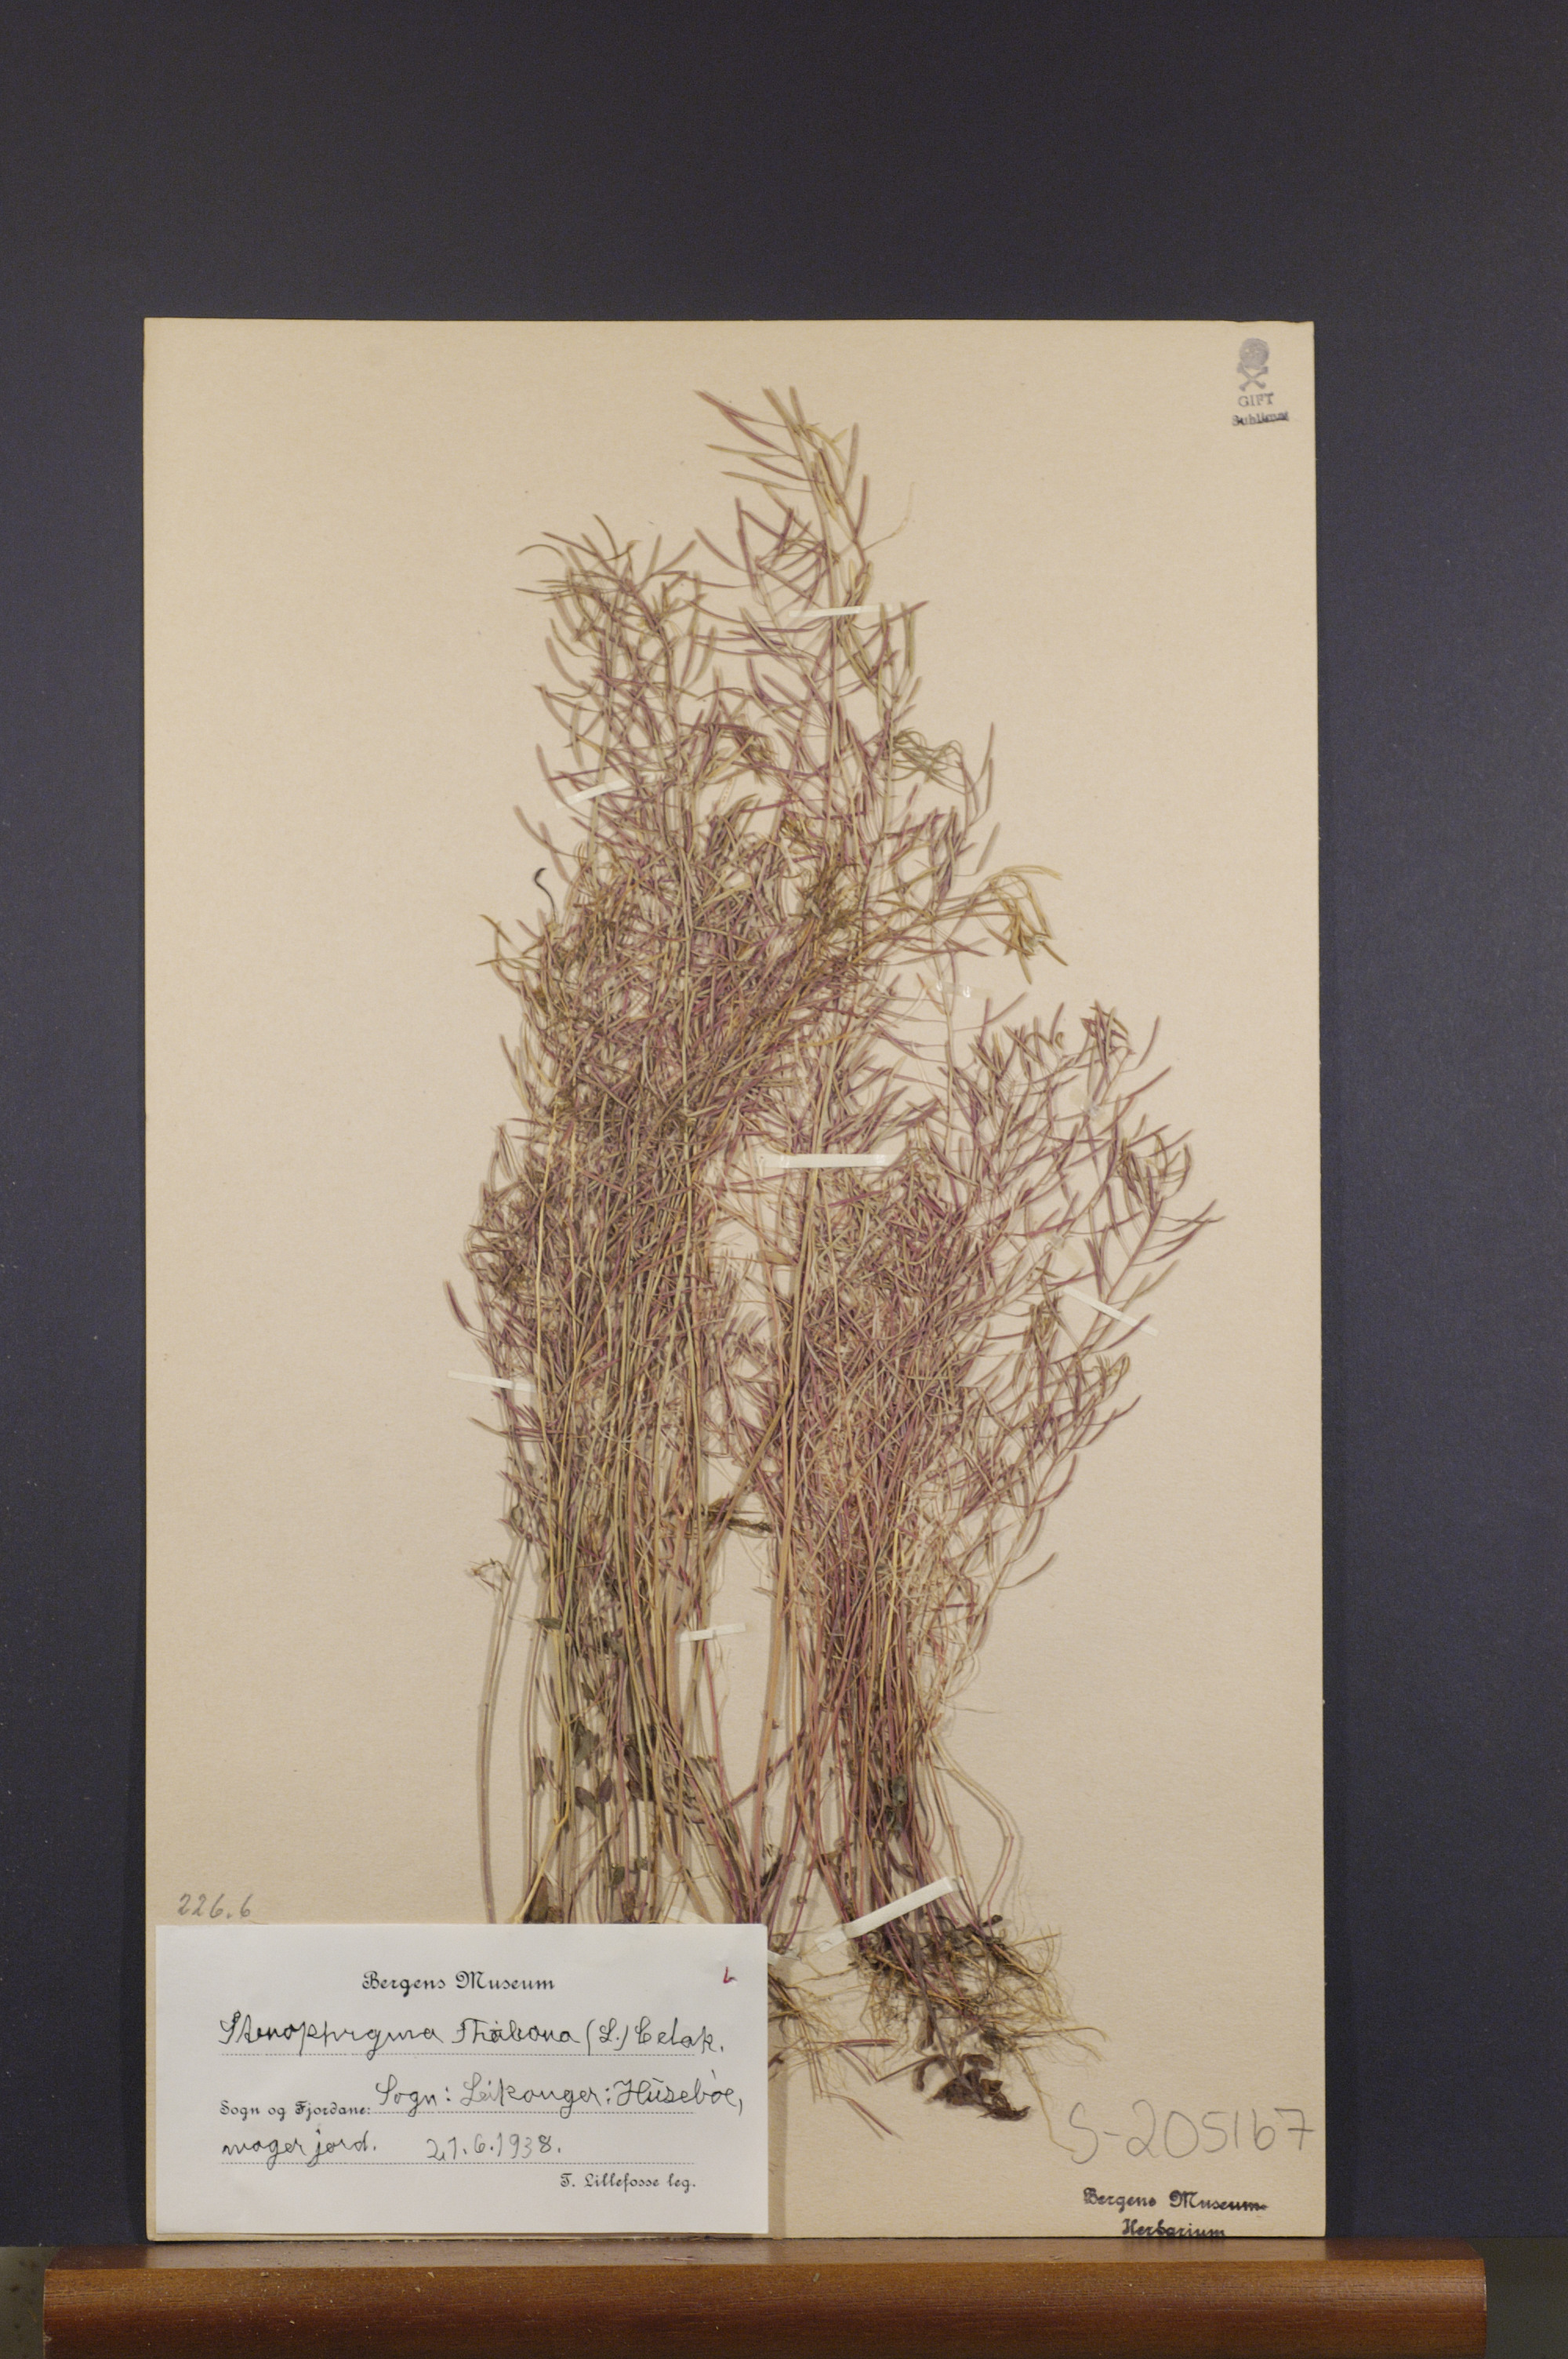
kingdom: Plantae
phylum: Tracheophyta
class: Magnoliopsida
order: Brassicales
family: Brassicaceae
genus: Arabidopsis
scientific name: Arabidopsis thaliana
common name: Thale cress
